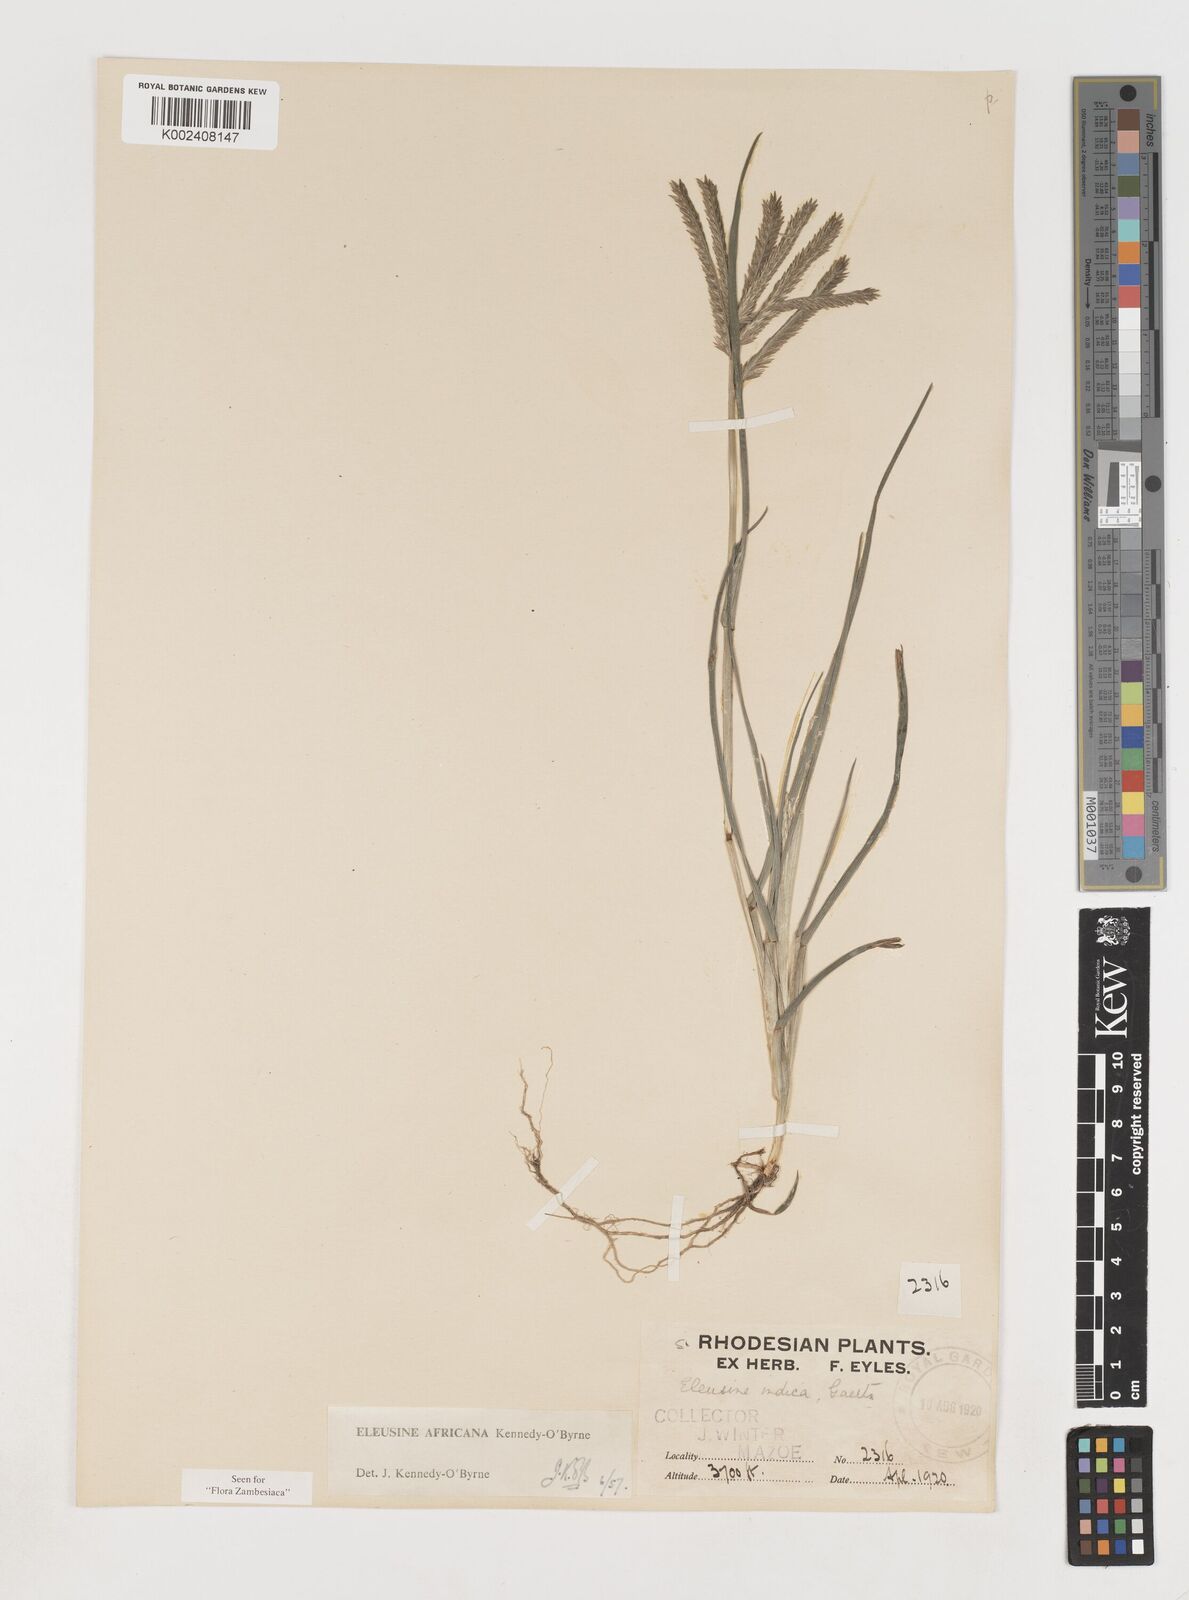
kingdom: Plantae
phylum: Tracheophyta
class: Liliopsida
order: Poales
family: Poaceae
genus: Eleusine
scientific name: Eleusine africana
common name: Wild african finger millet
